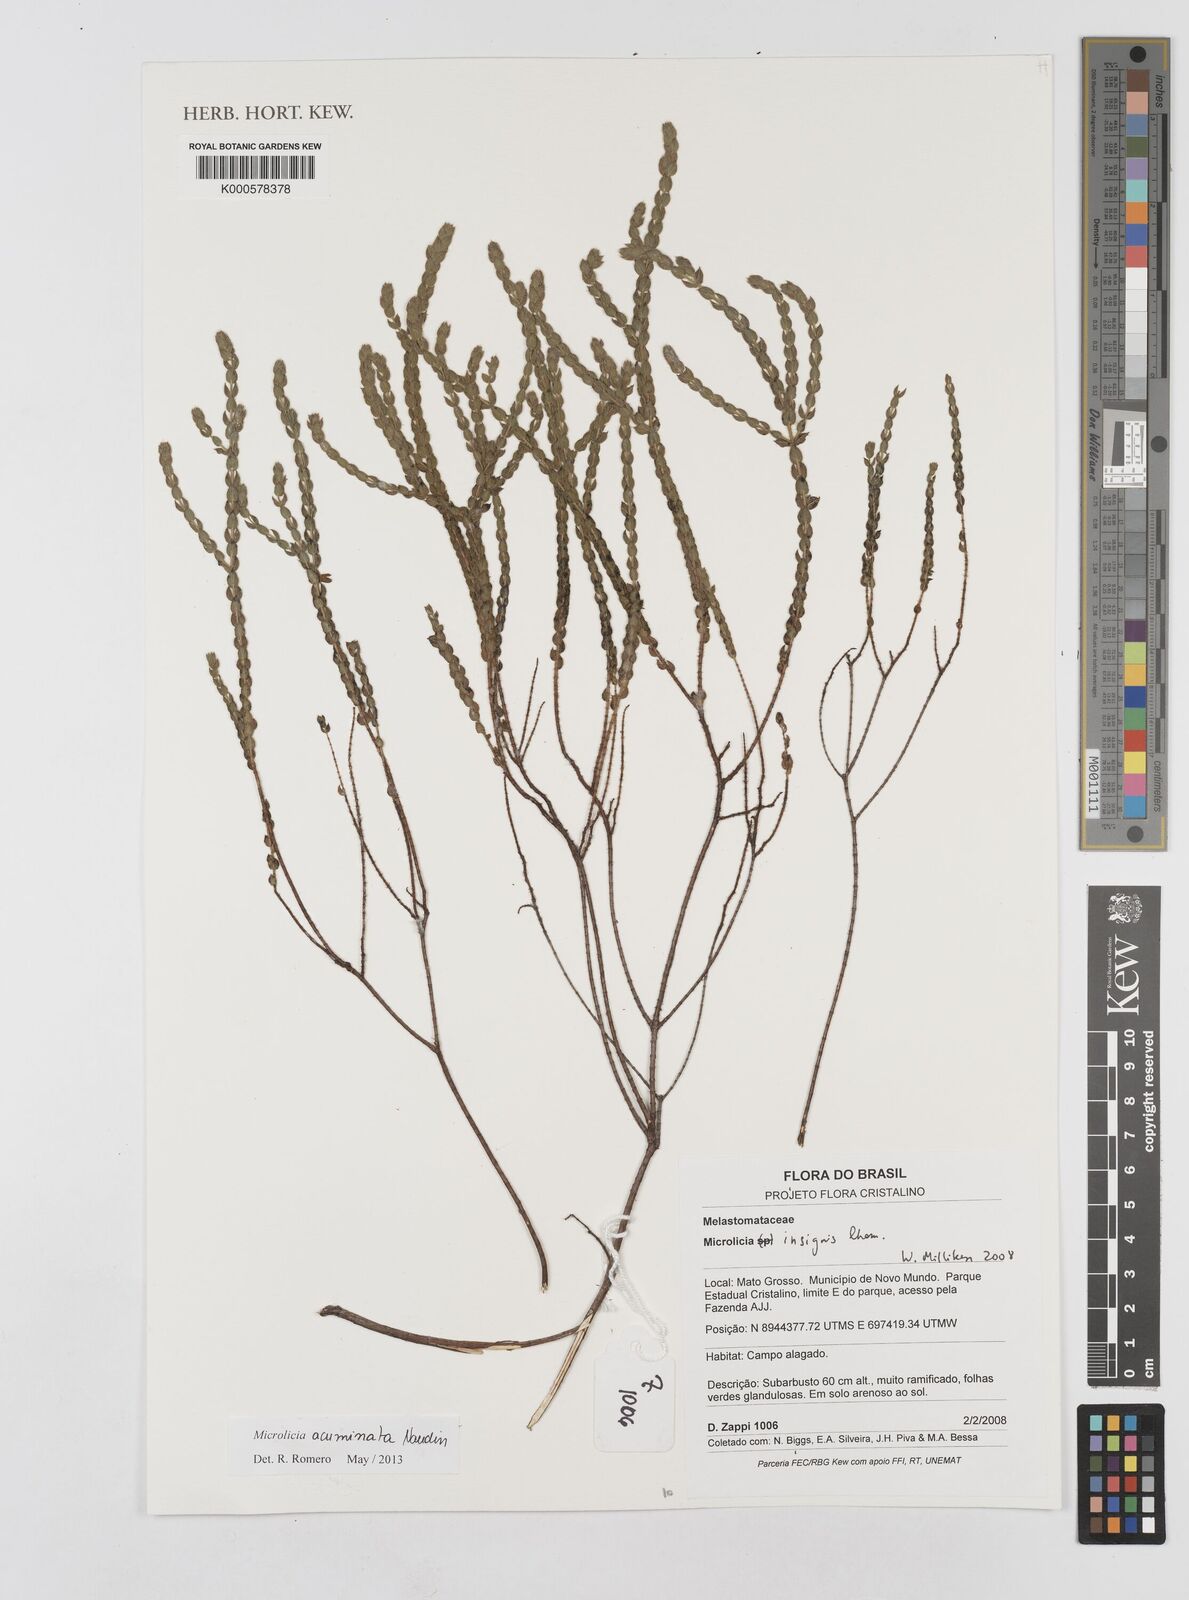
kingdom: Plantae
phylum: Tracheophyta
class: Magnoliopsida
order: Myrtales
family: Melastomataceae
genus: Microlicia
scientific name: Microlicia insignis
